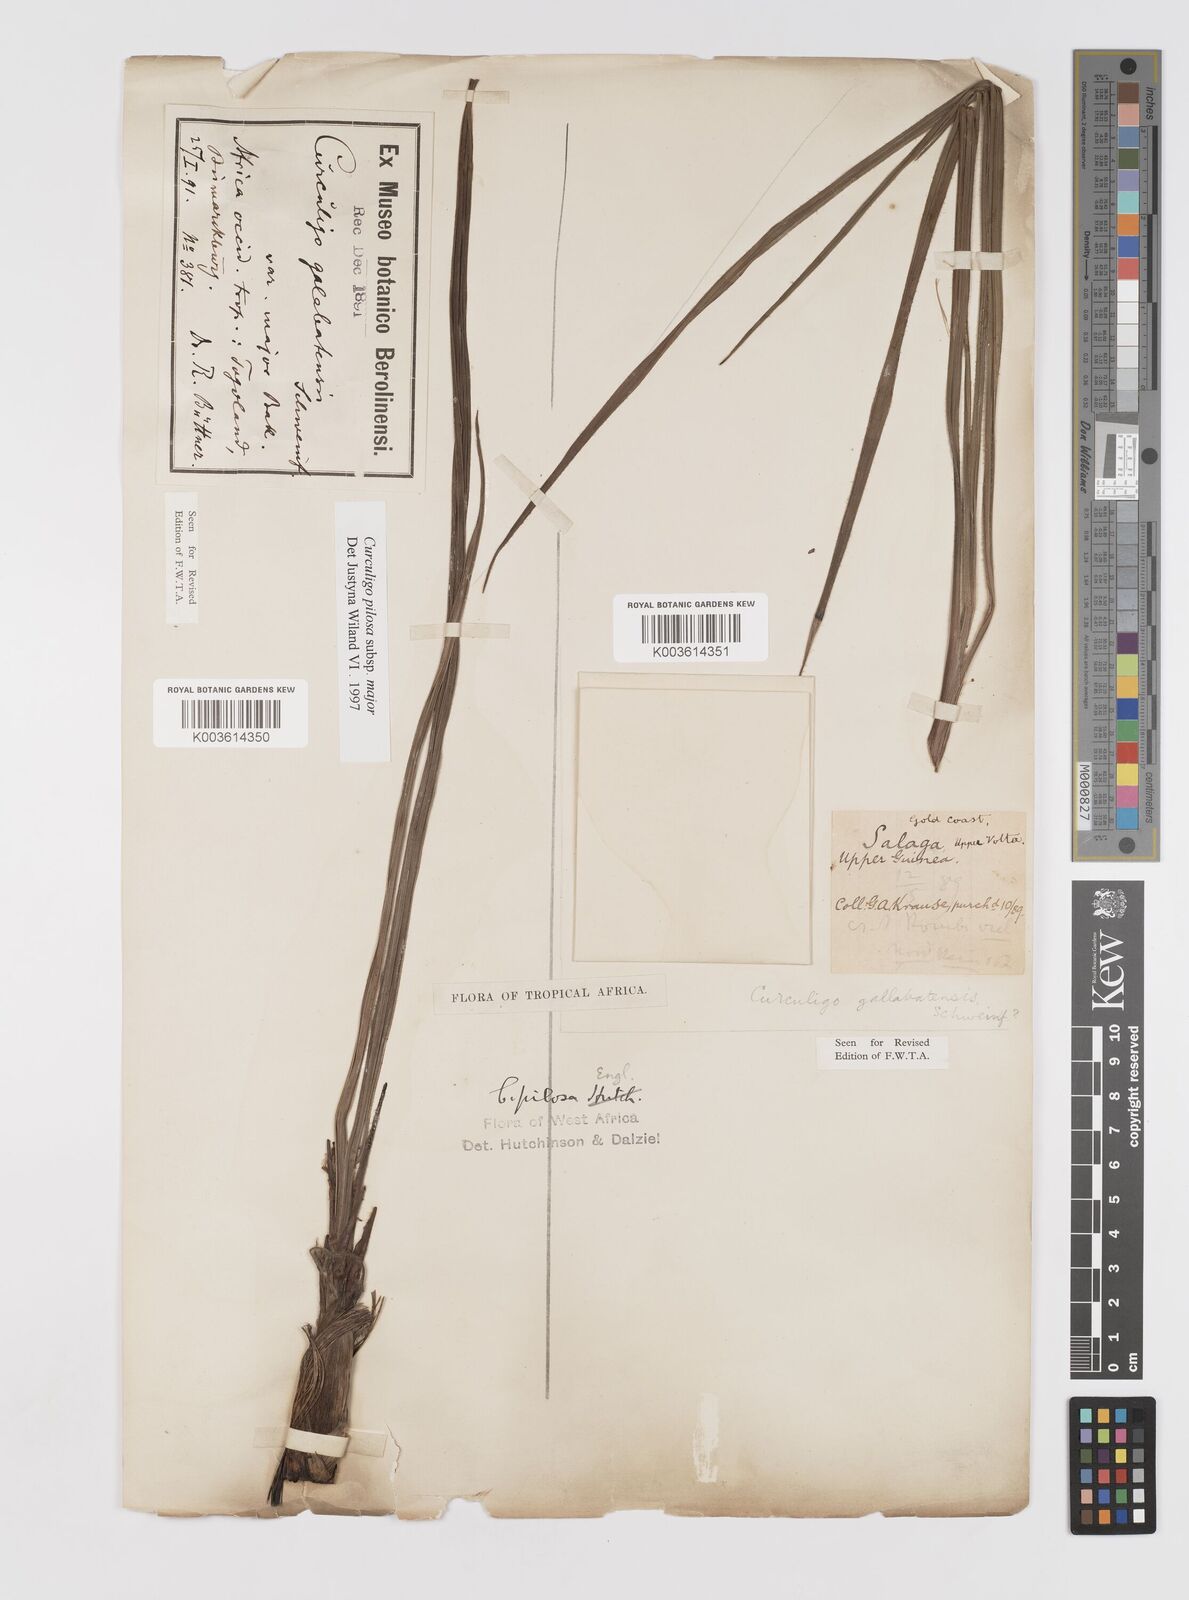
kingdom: Plantae
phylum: Tracheophyta
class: Liliopsida
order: Asparagales
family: Hypoxidaceae
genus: Curculigo
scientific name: Curculigo pilosa
